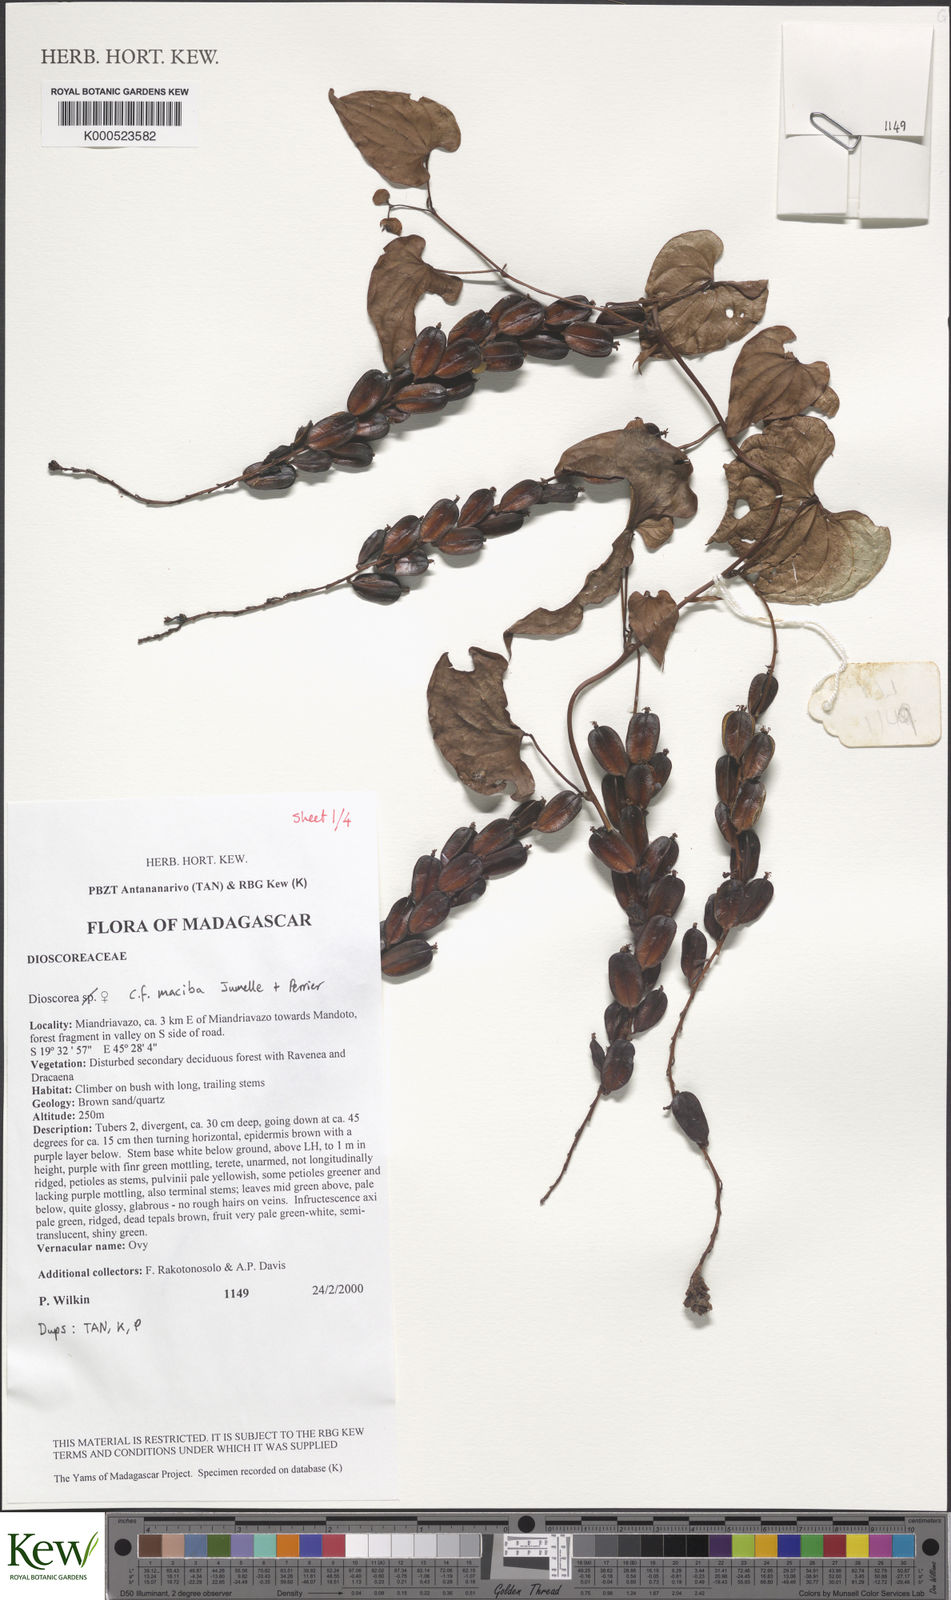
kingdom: Plantae
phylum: Tracheophyta
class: Liliopsida
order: Dioscoreales
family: Dioscoreaceae
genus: Dioscorea
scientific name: Dioscorea maciba
